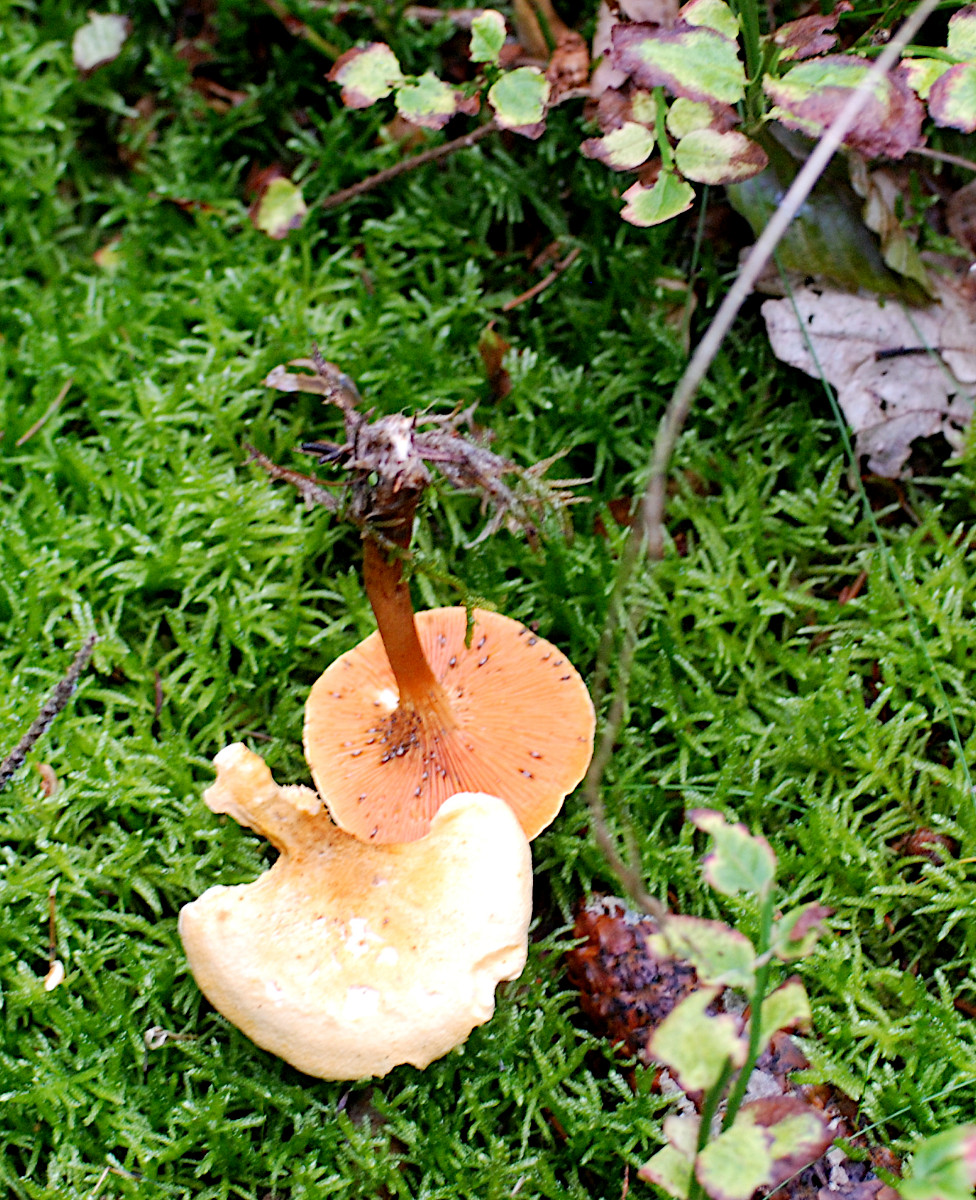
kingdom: Fungi
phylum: Basidiomycota
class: Agaricomycetes
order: Boletales
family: Hygrophoropsidaceae
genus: Hygrophoropsis
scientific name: Hygrophoropsis aurantiaca
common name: almindelig orangekantarel
